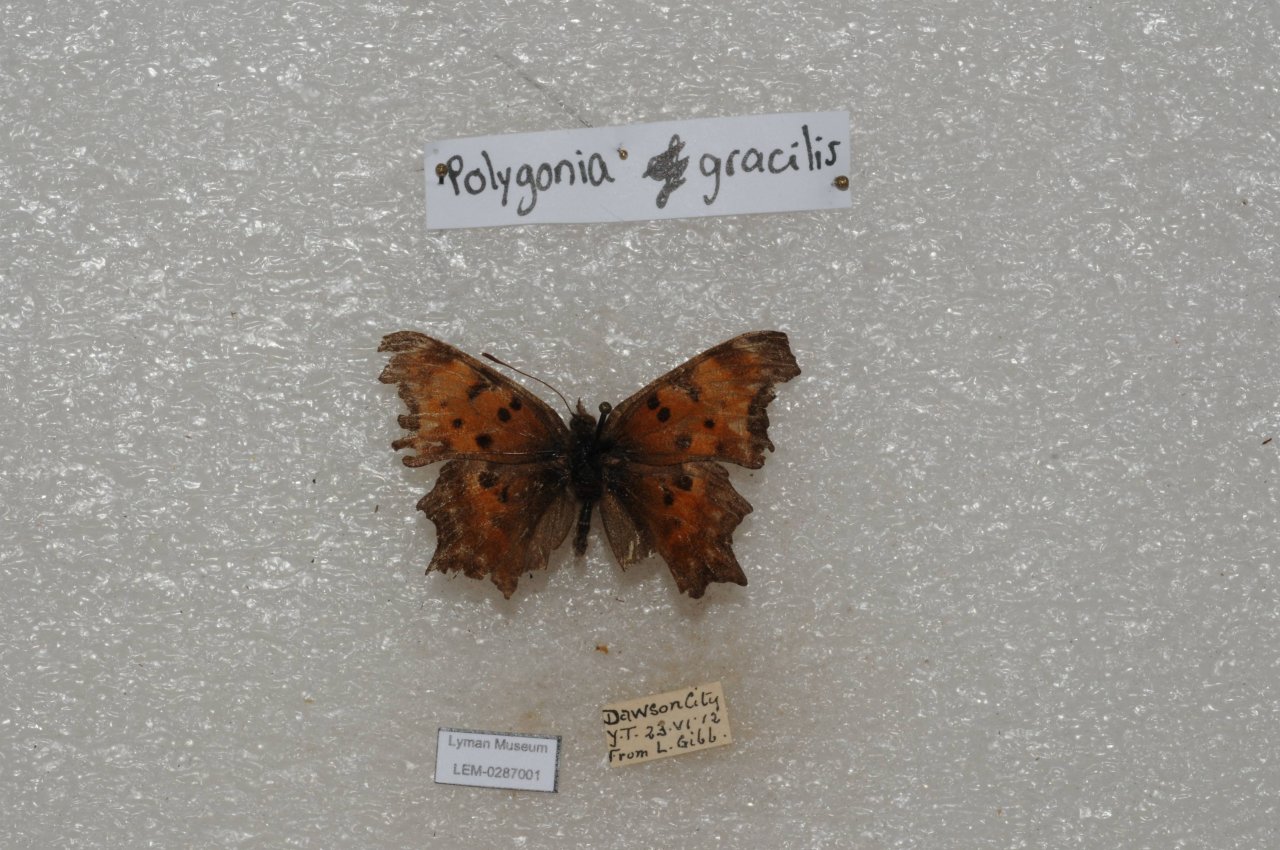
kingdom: Animalia
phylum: Arthropoda
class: Insecta
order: Lepidoptera
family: Nymphalidae
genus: Polygonia
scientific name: Polygonia gracilis
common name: Hoary Comma
